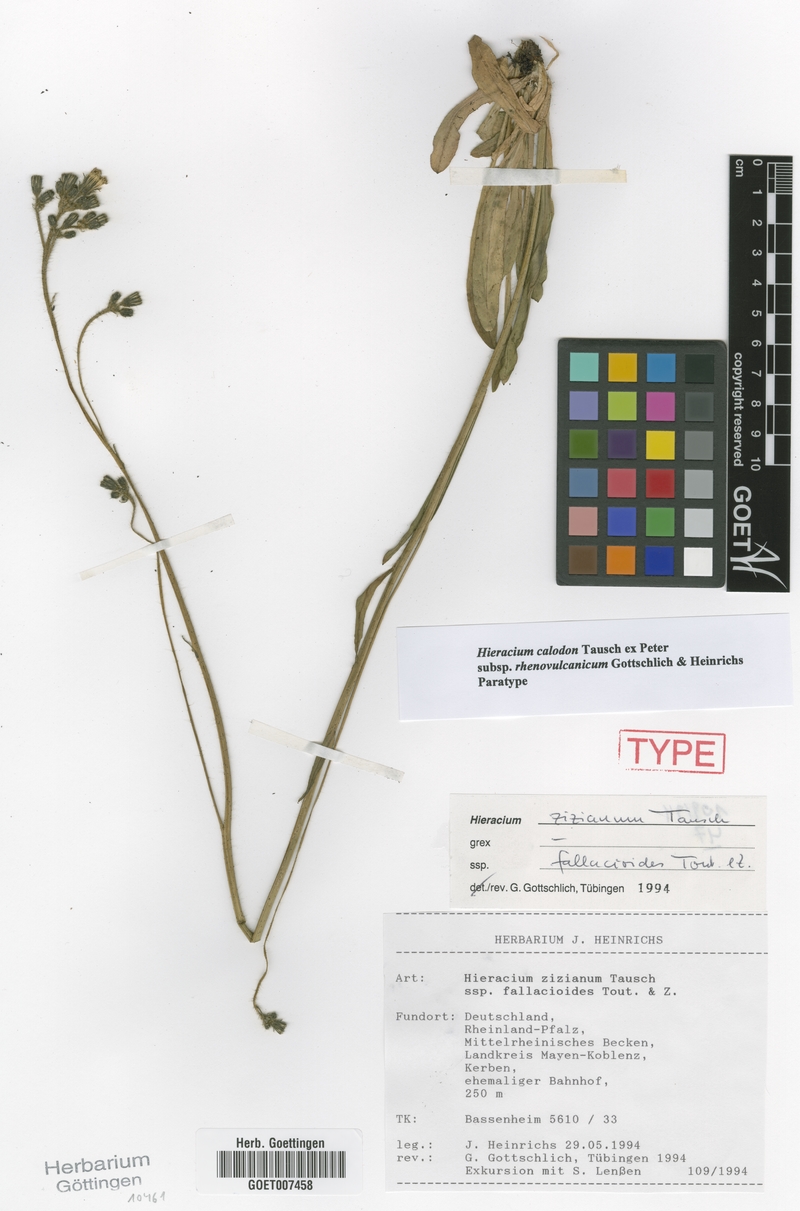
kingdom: Plantae
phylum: Tracheophyta
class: Magnoliopsida
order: Asterales
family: Asteraceae
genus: Pilosella
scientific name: Pilosella calodon
